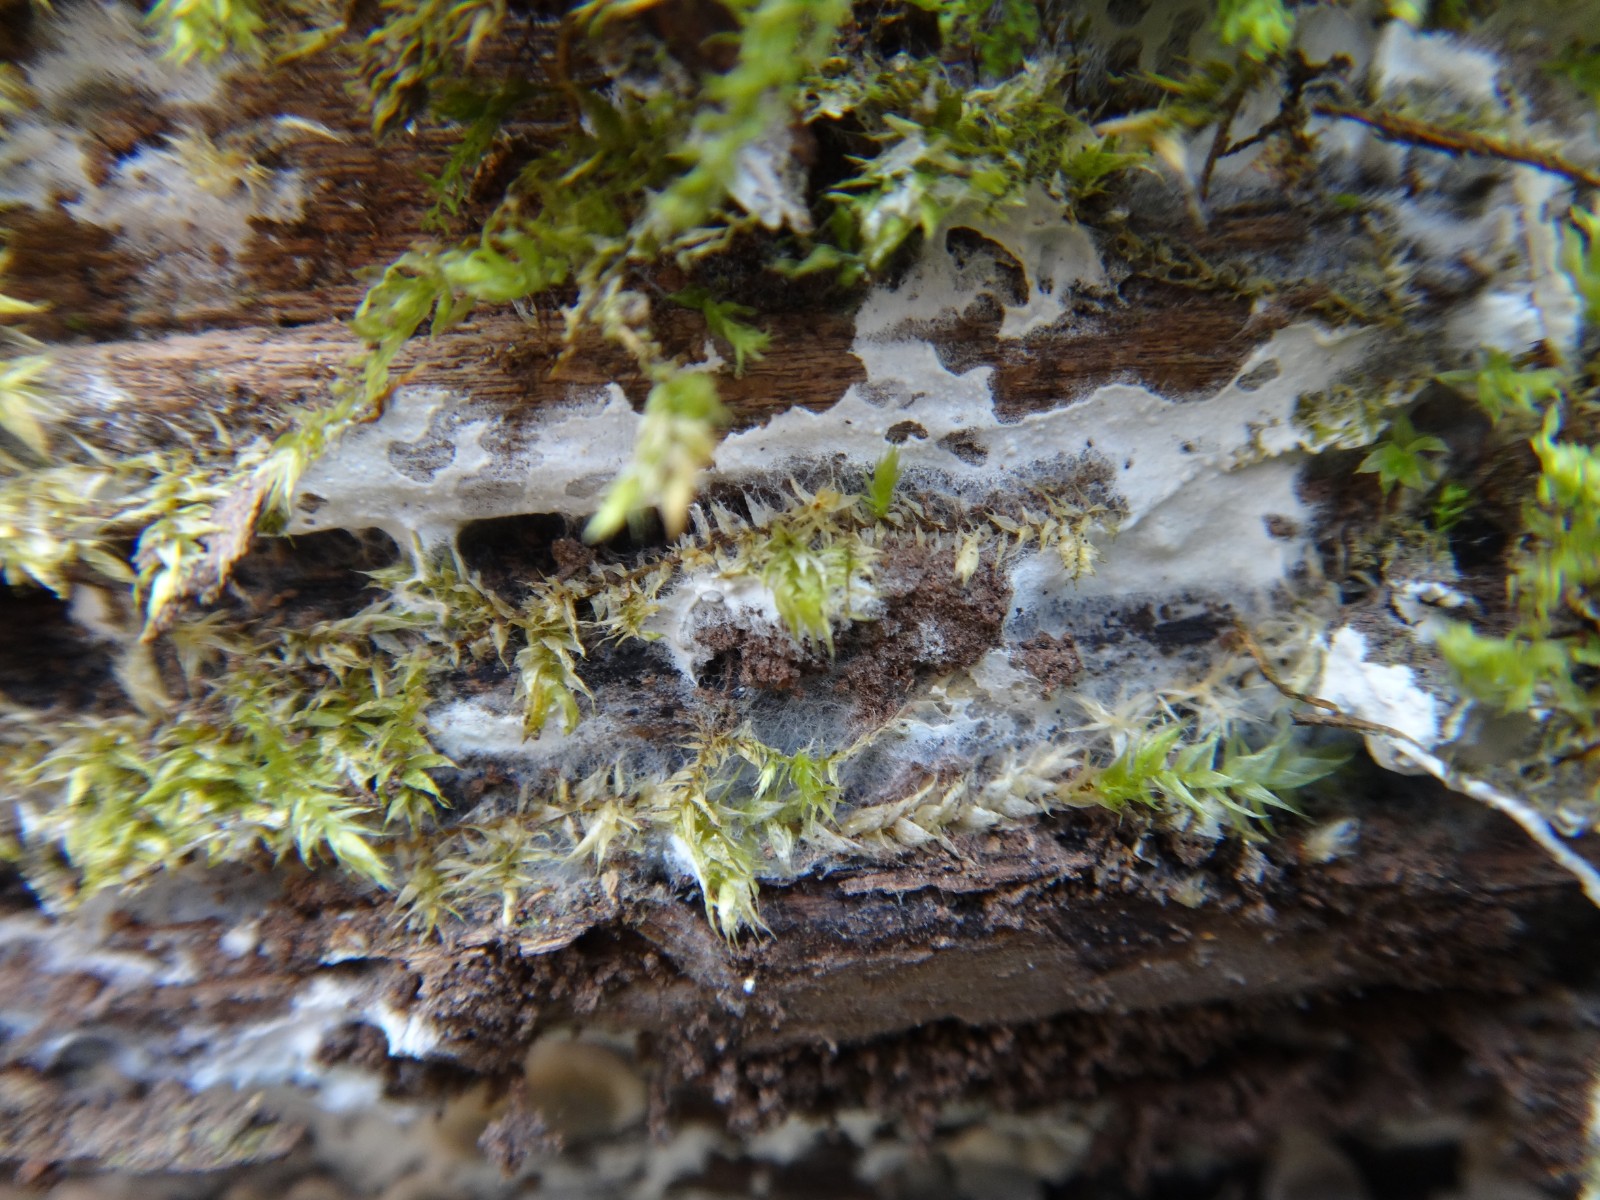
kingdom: Fungi
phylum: Basidiomycota
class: Agaricomycetes
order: Cantharellales
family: Hydnaceae
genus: Sistotrema
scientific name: Sistotrema sernanderi
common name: sur kroneskorpe
